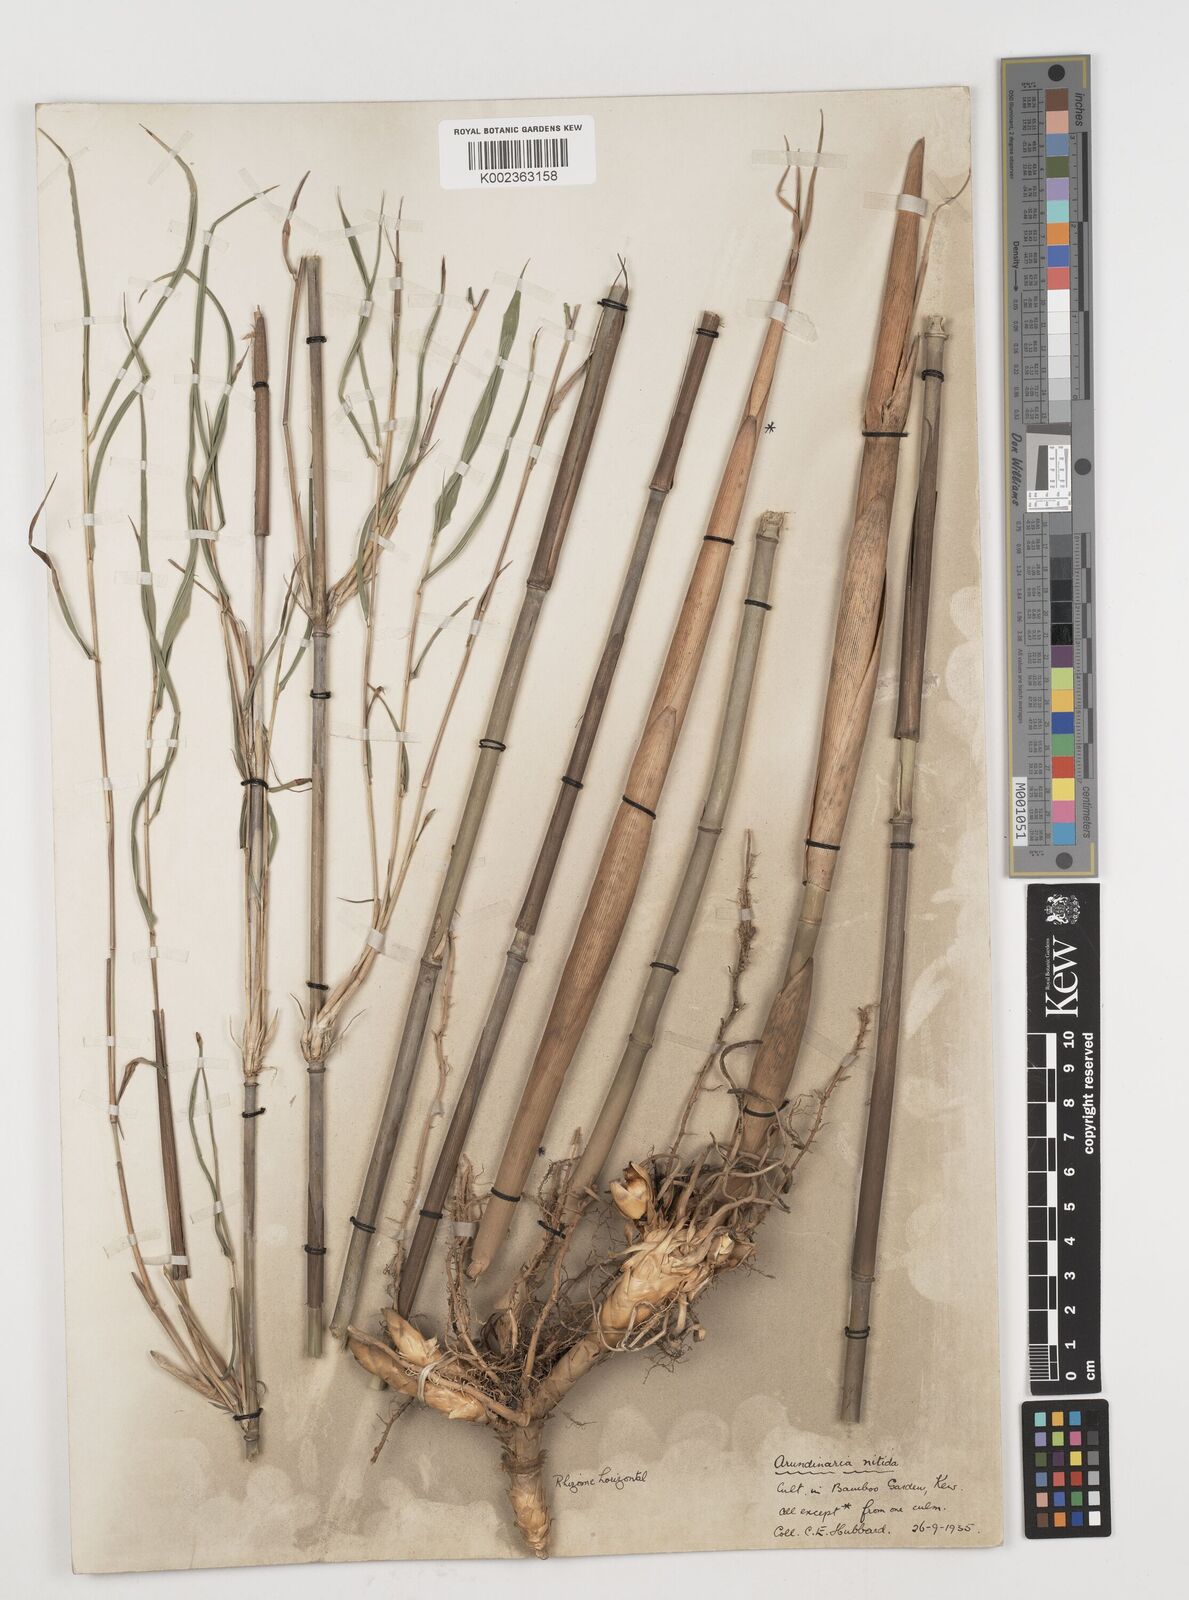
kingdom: Plantae
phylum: Tracheophyta
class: Liliopsida
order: Poales
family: Poaceae
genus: Fargesia
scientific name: Fargesia nitida ex
